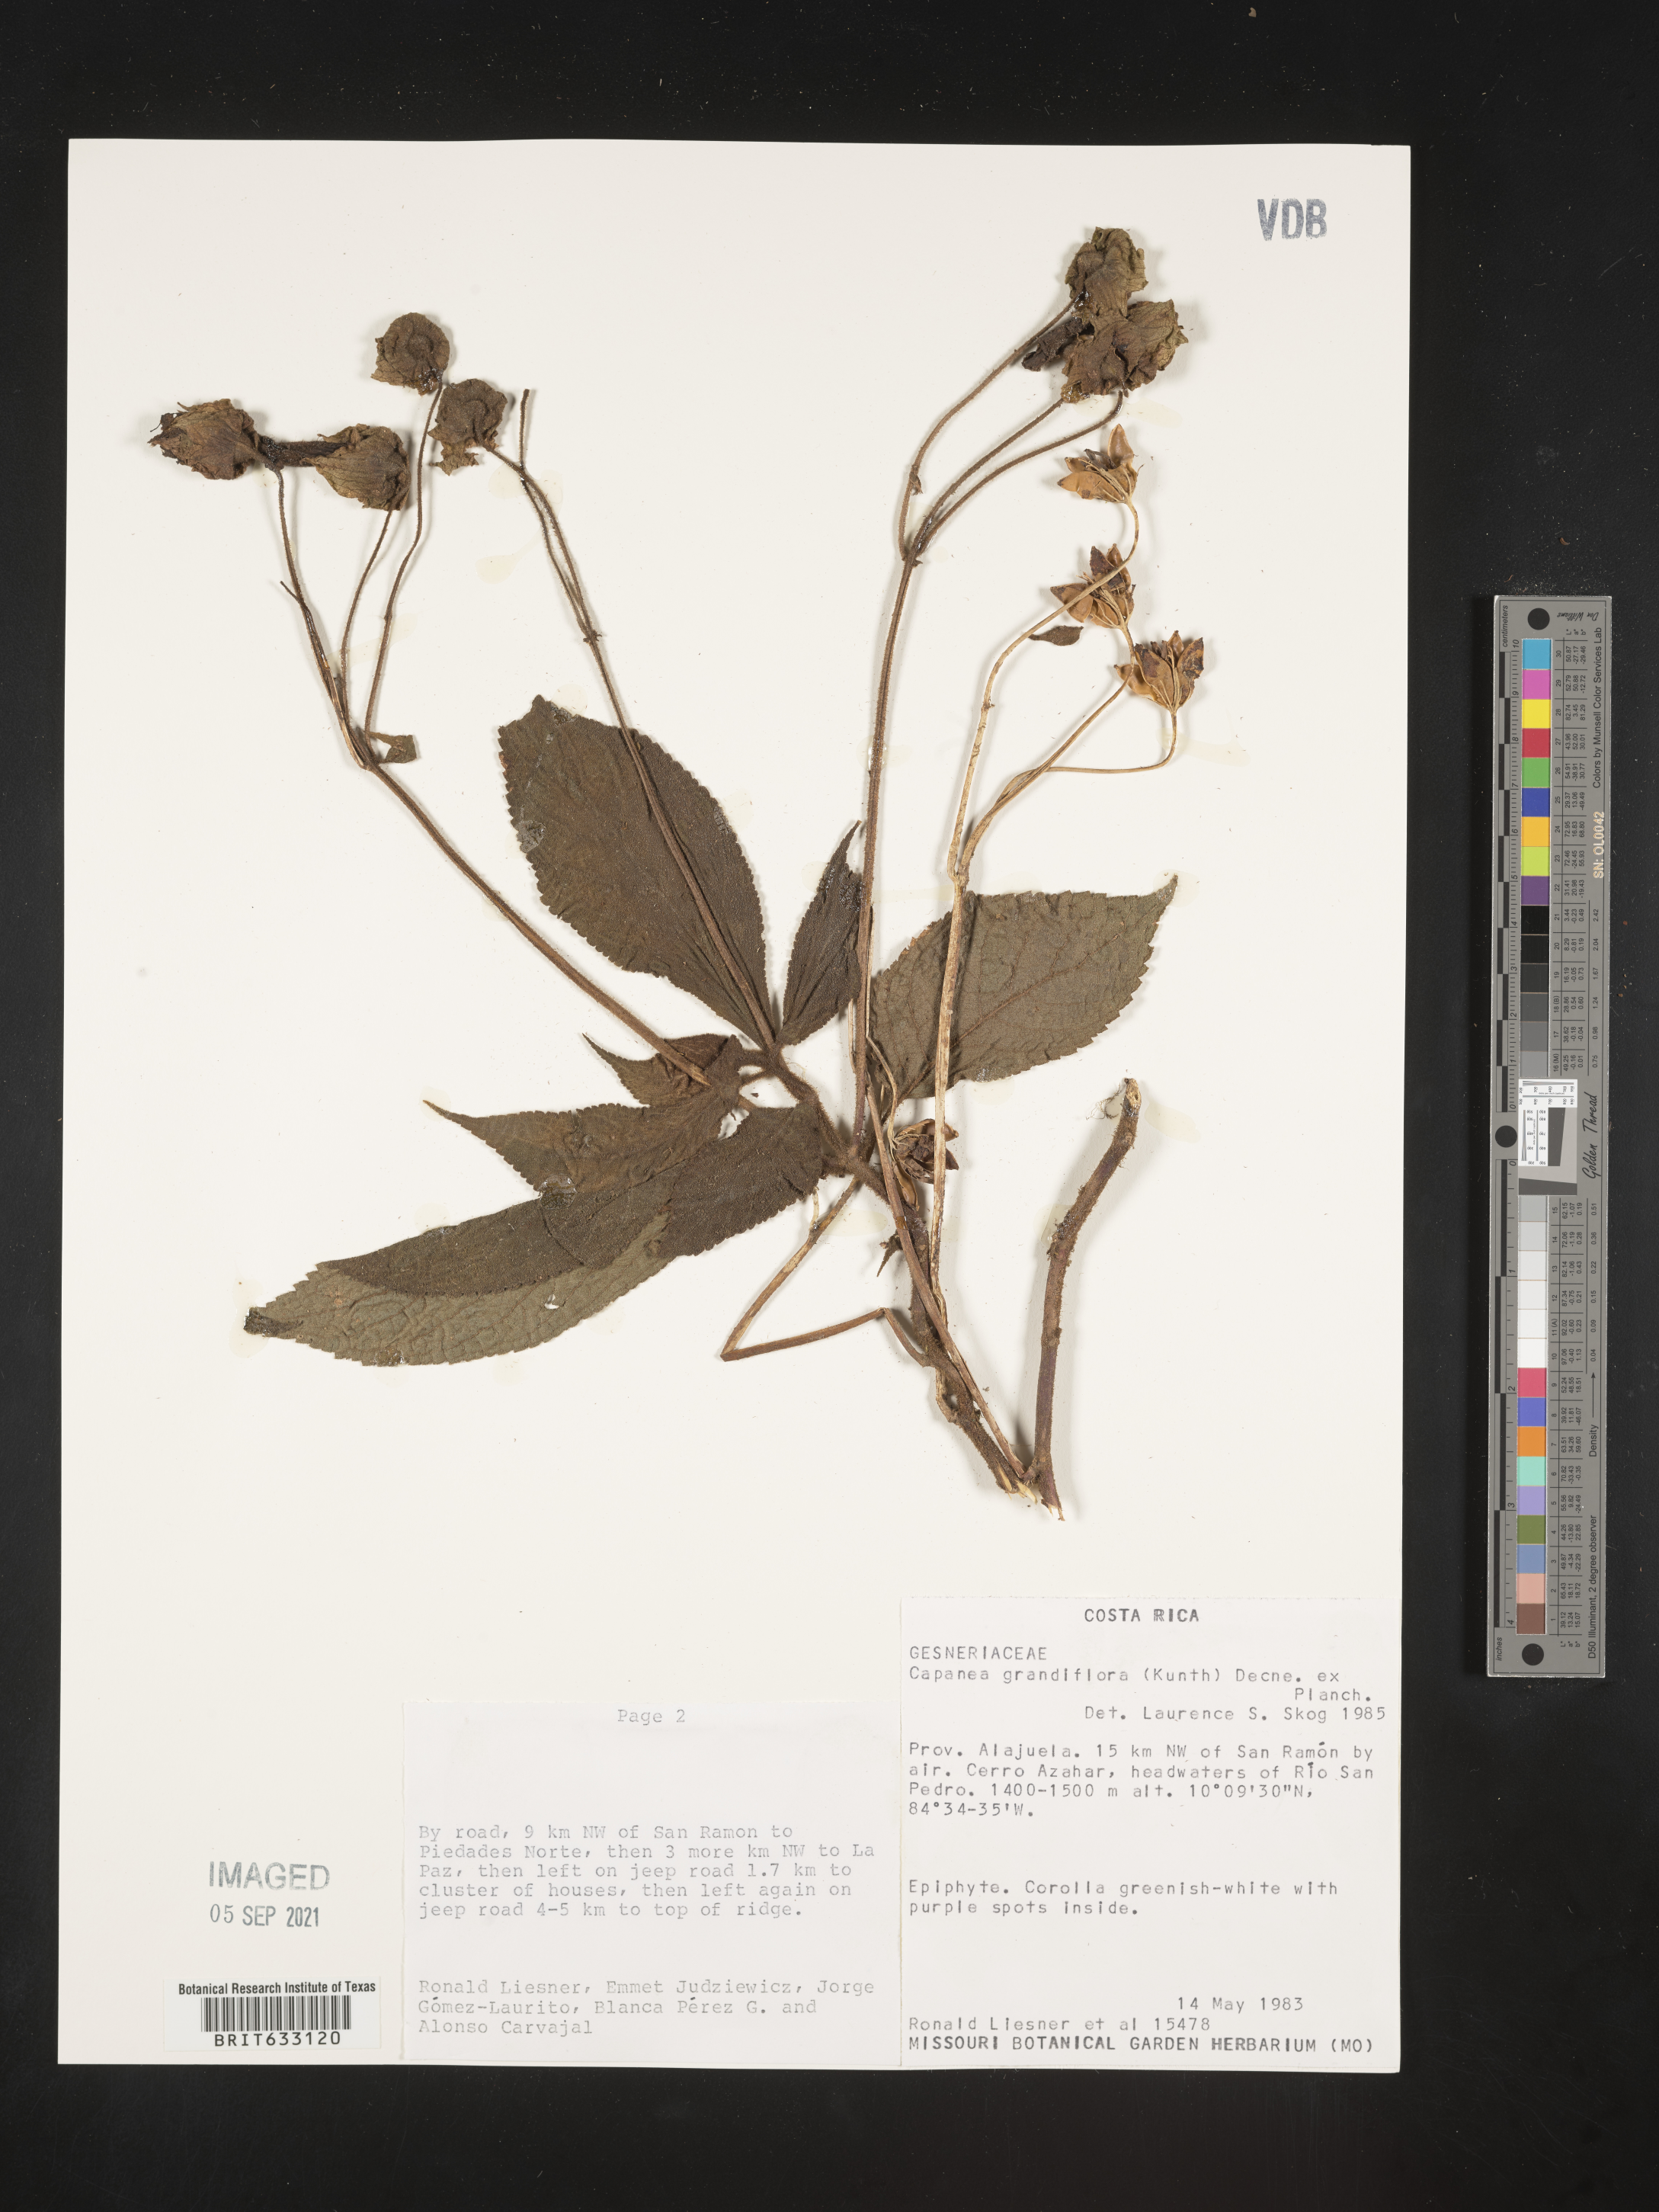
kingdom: Plantae
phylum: Tracheophyta
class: Magnoliopsida
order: Lamiales
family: Gesneriaceae
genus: Kohleria
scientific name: Kohleria tigridia
